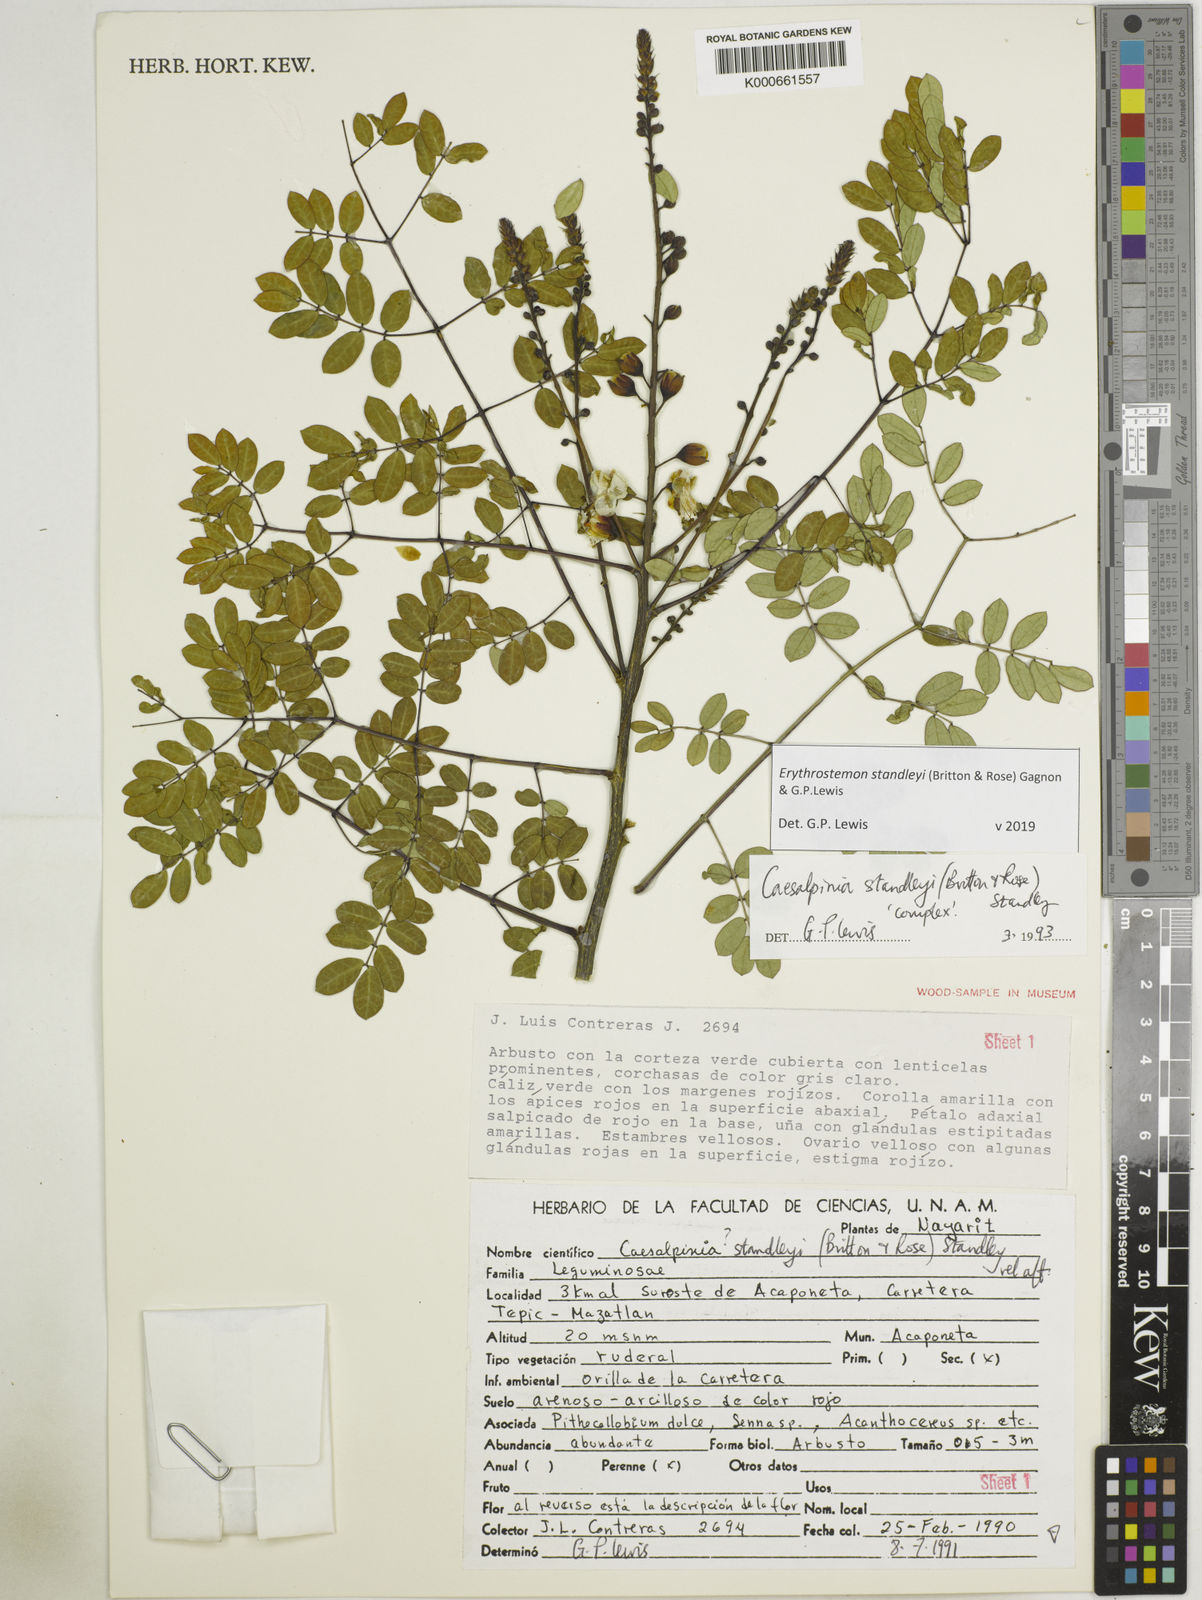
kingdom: Plantae
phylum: Tracheophyta
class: Magnoliopsida
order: Fabales
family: Fabaceae
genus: Erythrostemon
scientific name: Erythrostemon standleyi
